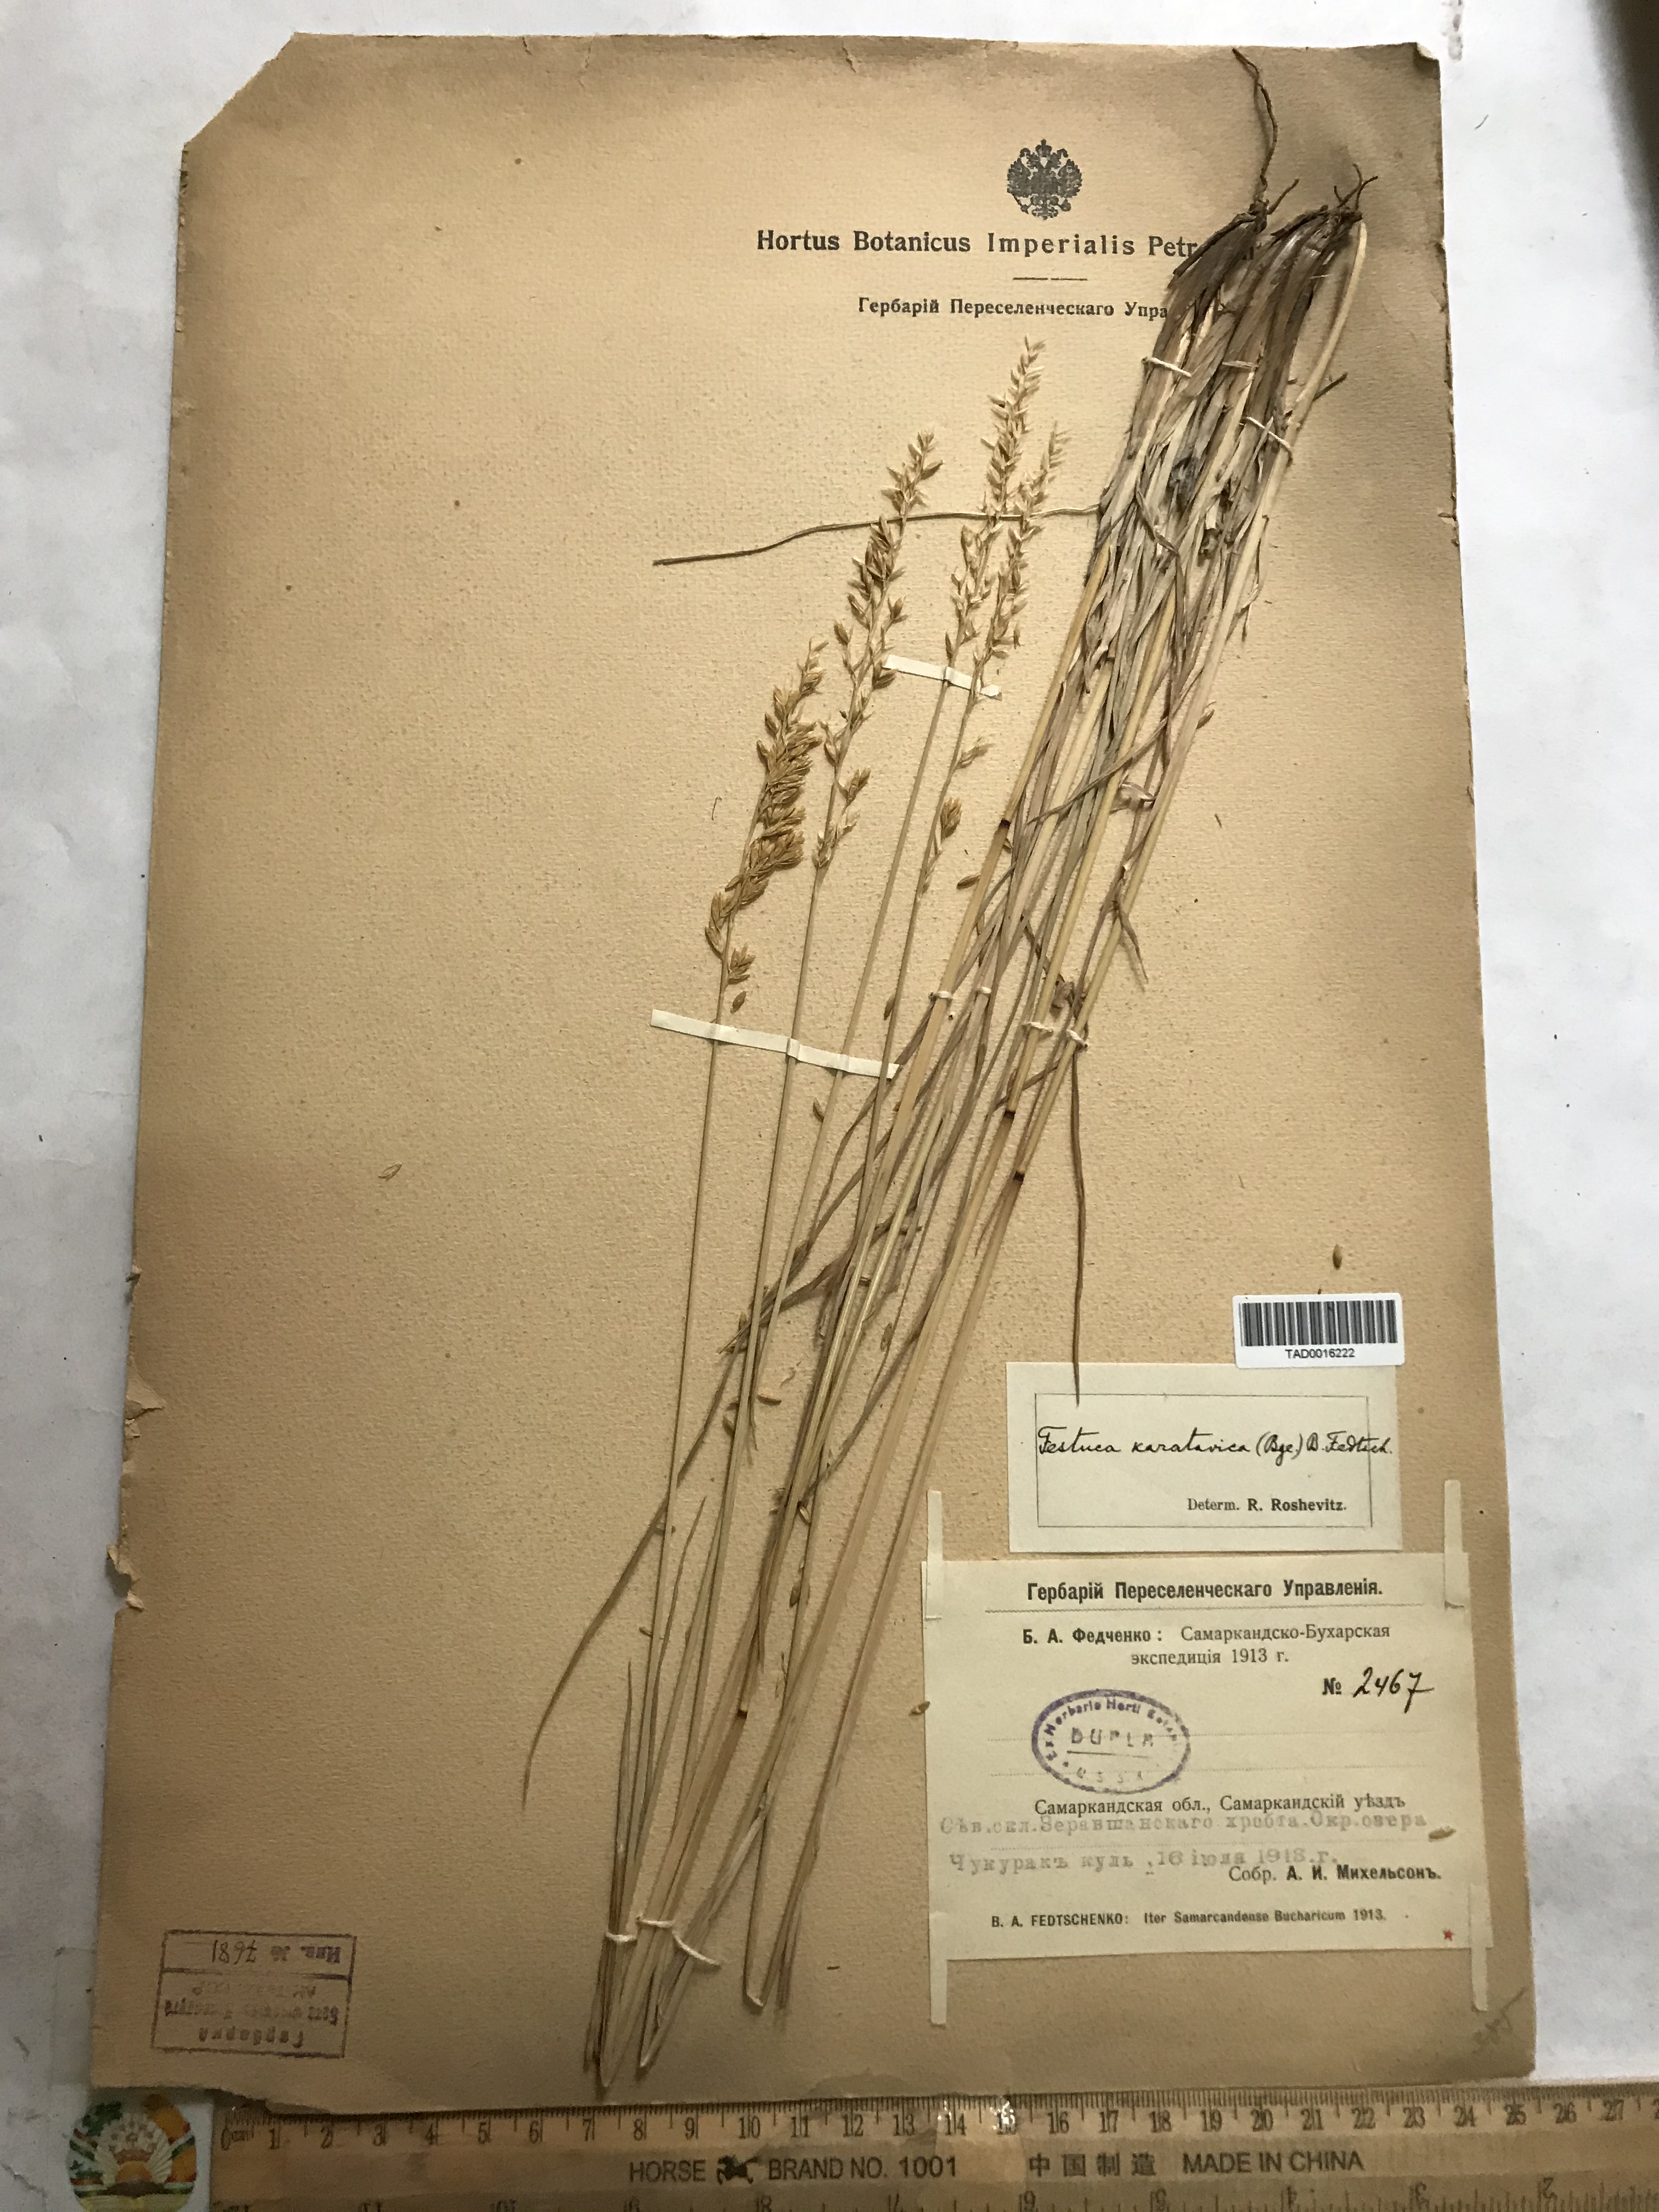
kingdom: Plantae
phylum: Tracheophyta
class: Liliopsida
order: Poales
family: Poaceae
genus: Festuca
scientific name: Festuca karatavica
